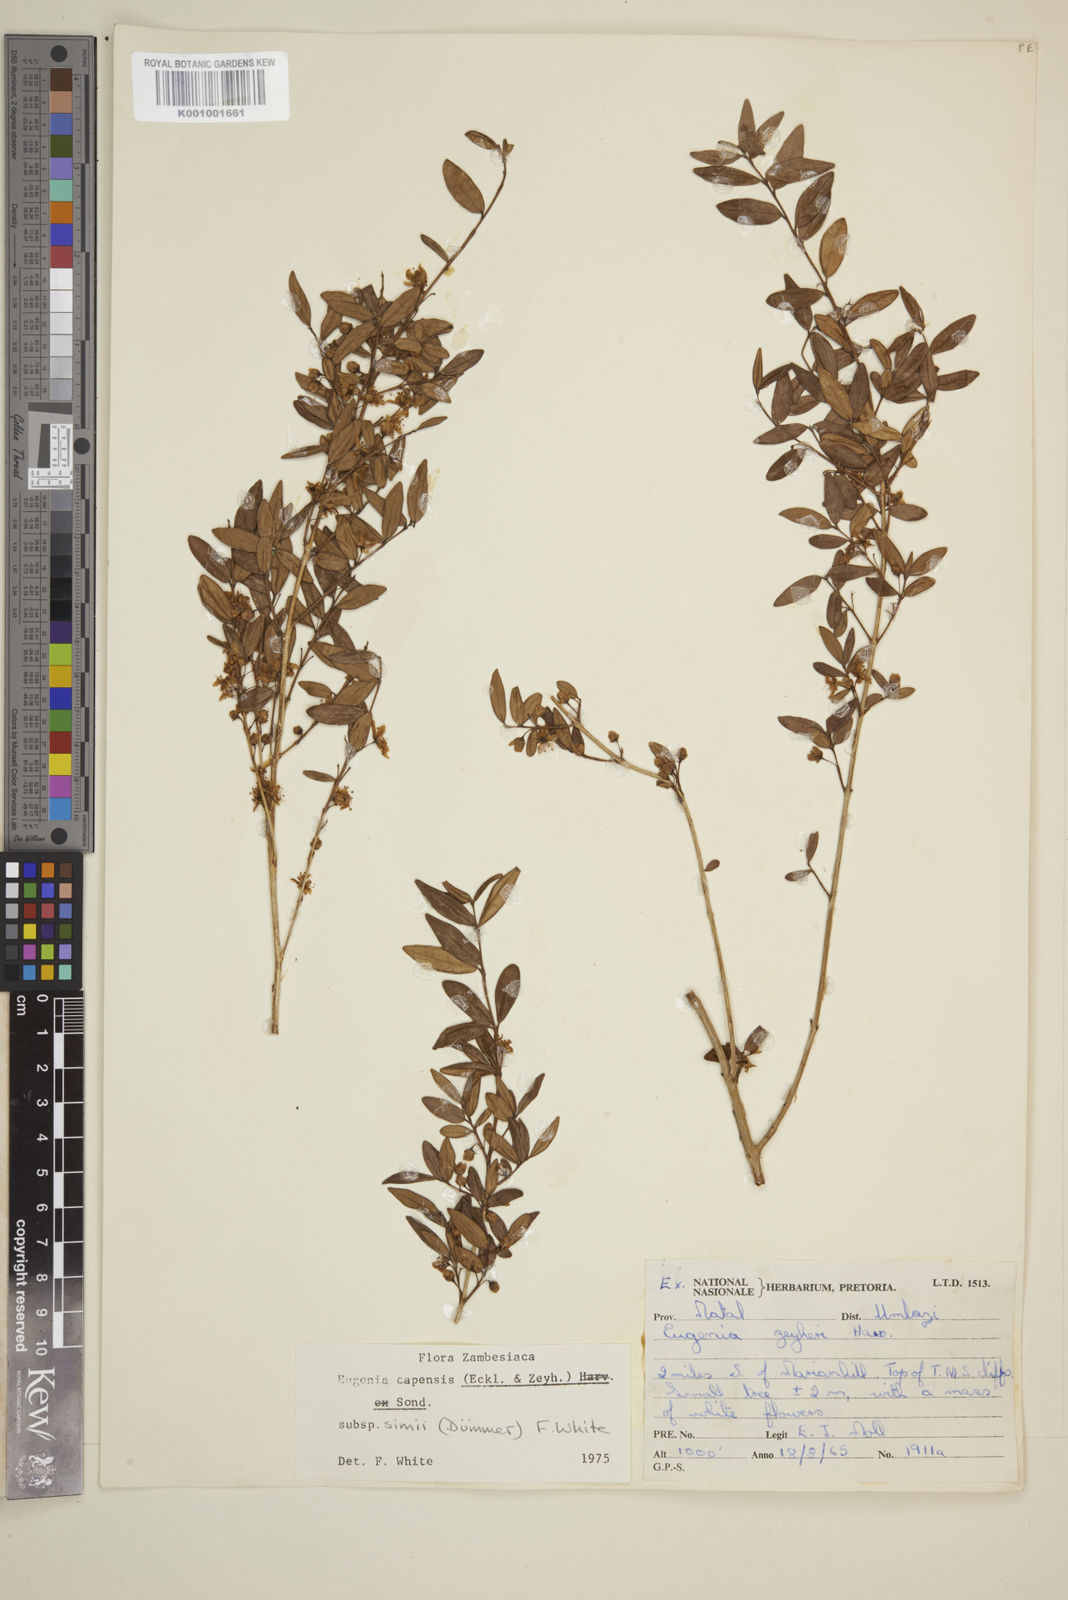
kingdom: Plantae
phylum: Tracheophyta
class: Magnoliopsida
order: Myrtales
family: Myrtaceae
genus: Eugenia
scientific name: Eugenia simii
